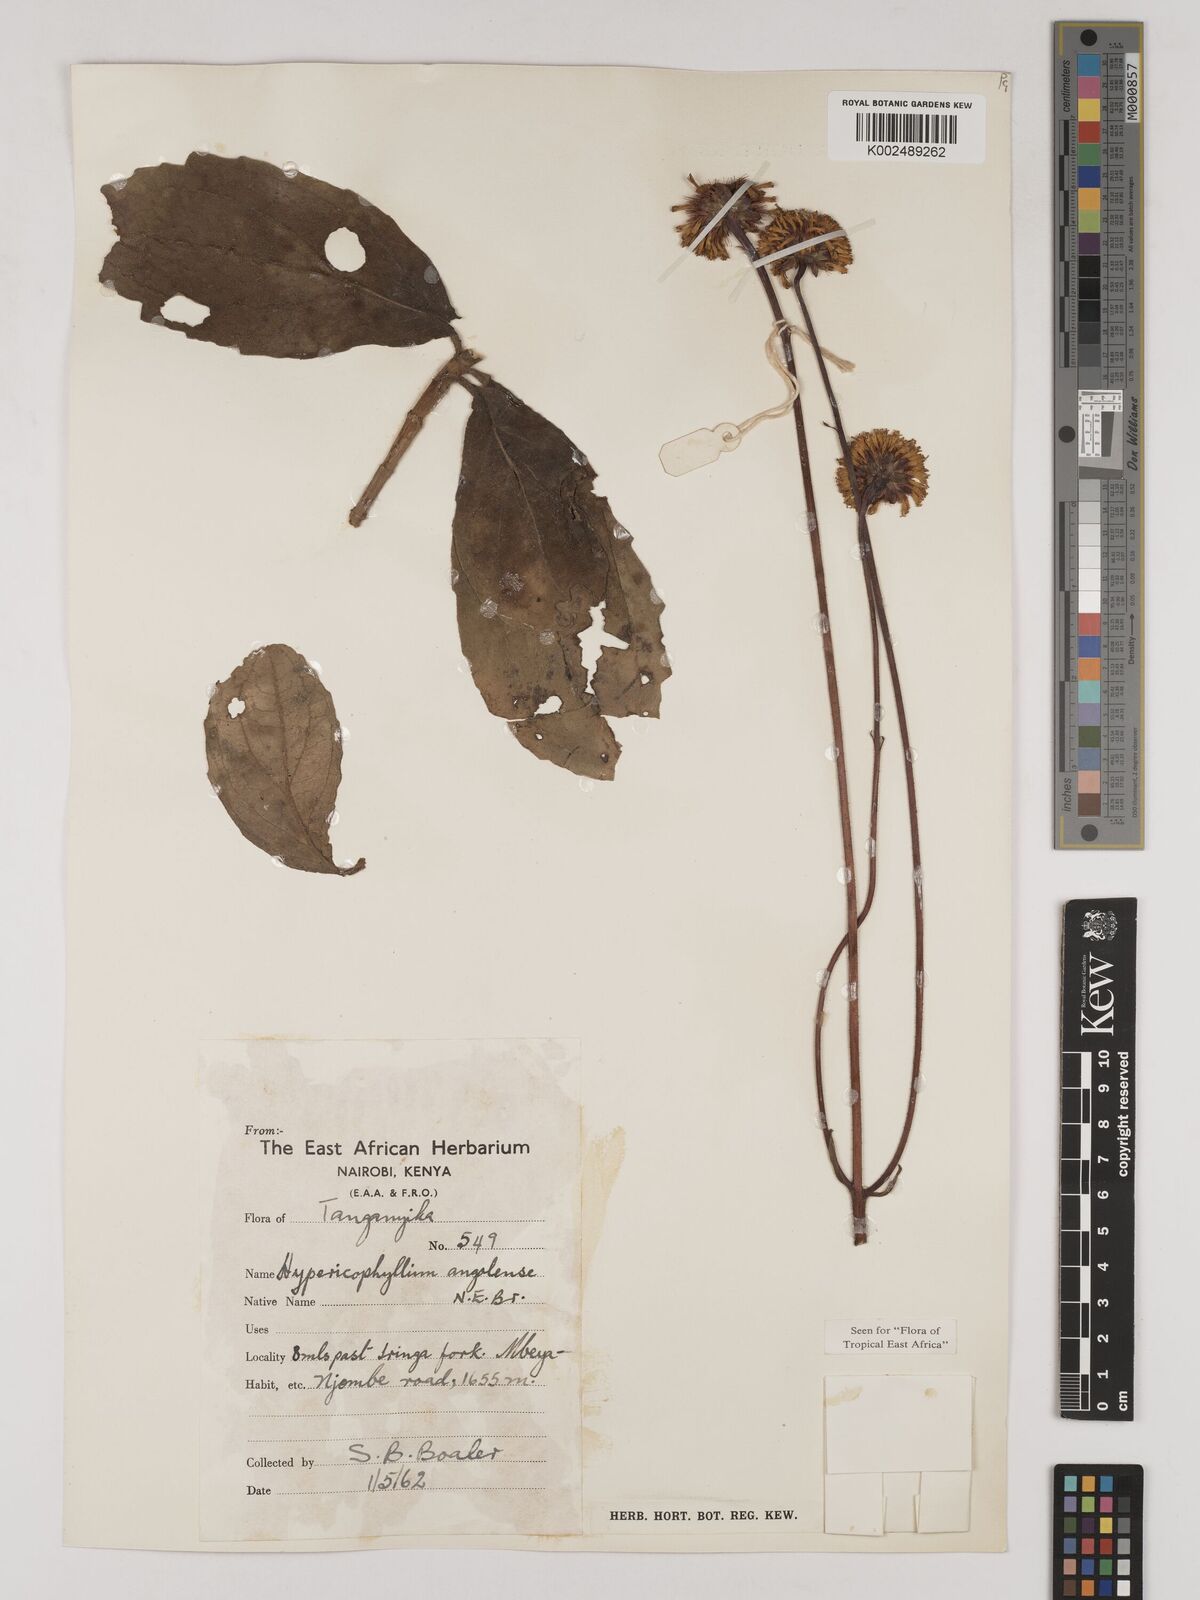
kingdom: Plantae
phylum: Tracheophyta
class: Magnoliopsida
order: Asterales
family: Asteraceae
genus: Hypericophyllum
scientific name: Hypericophyllum angolense
